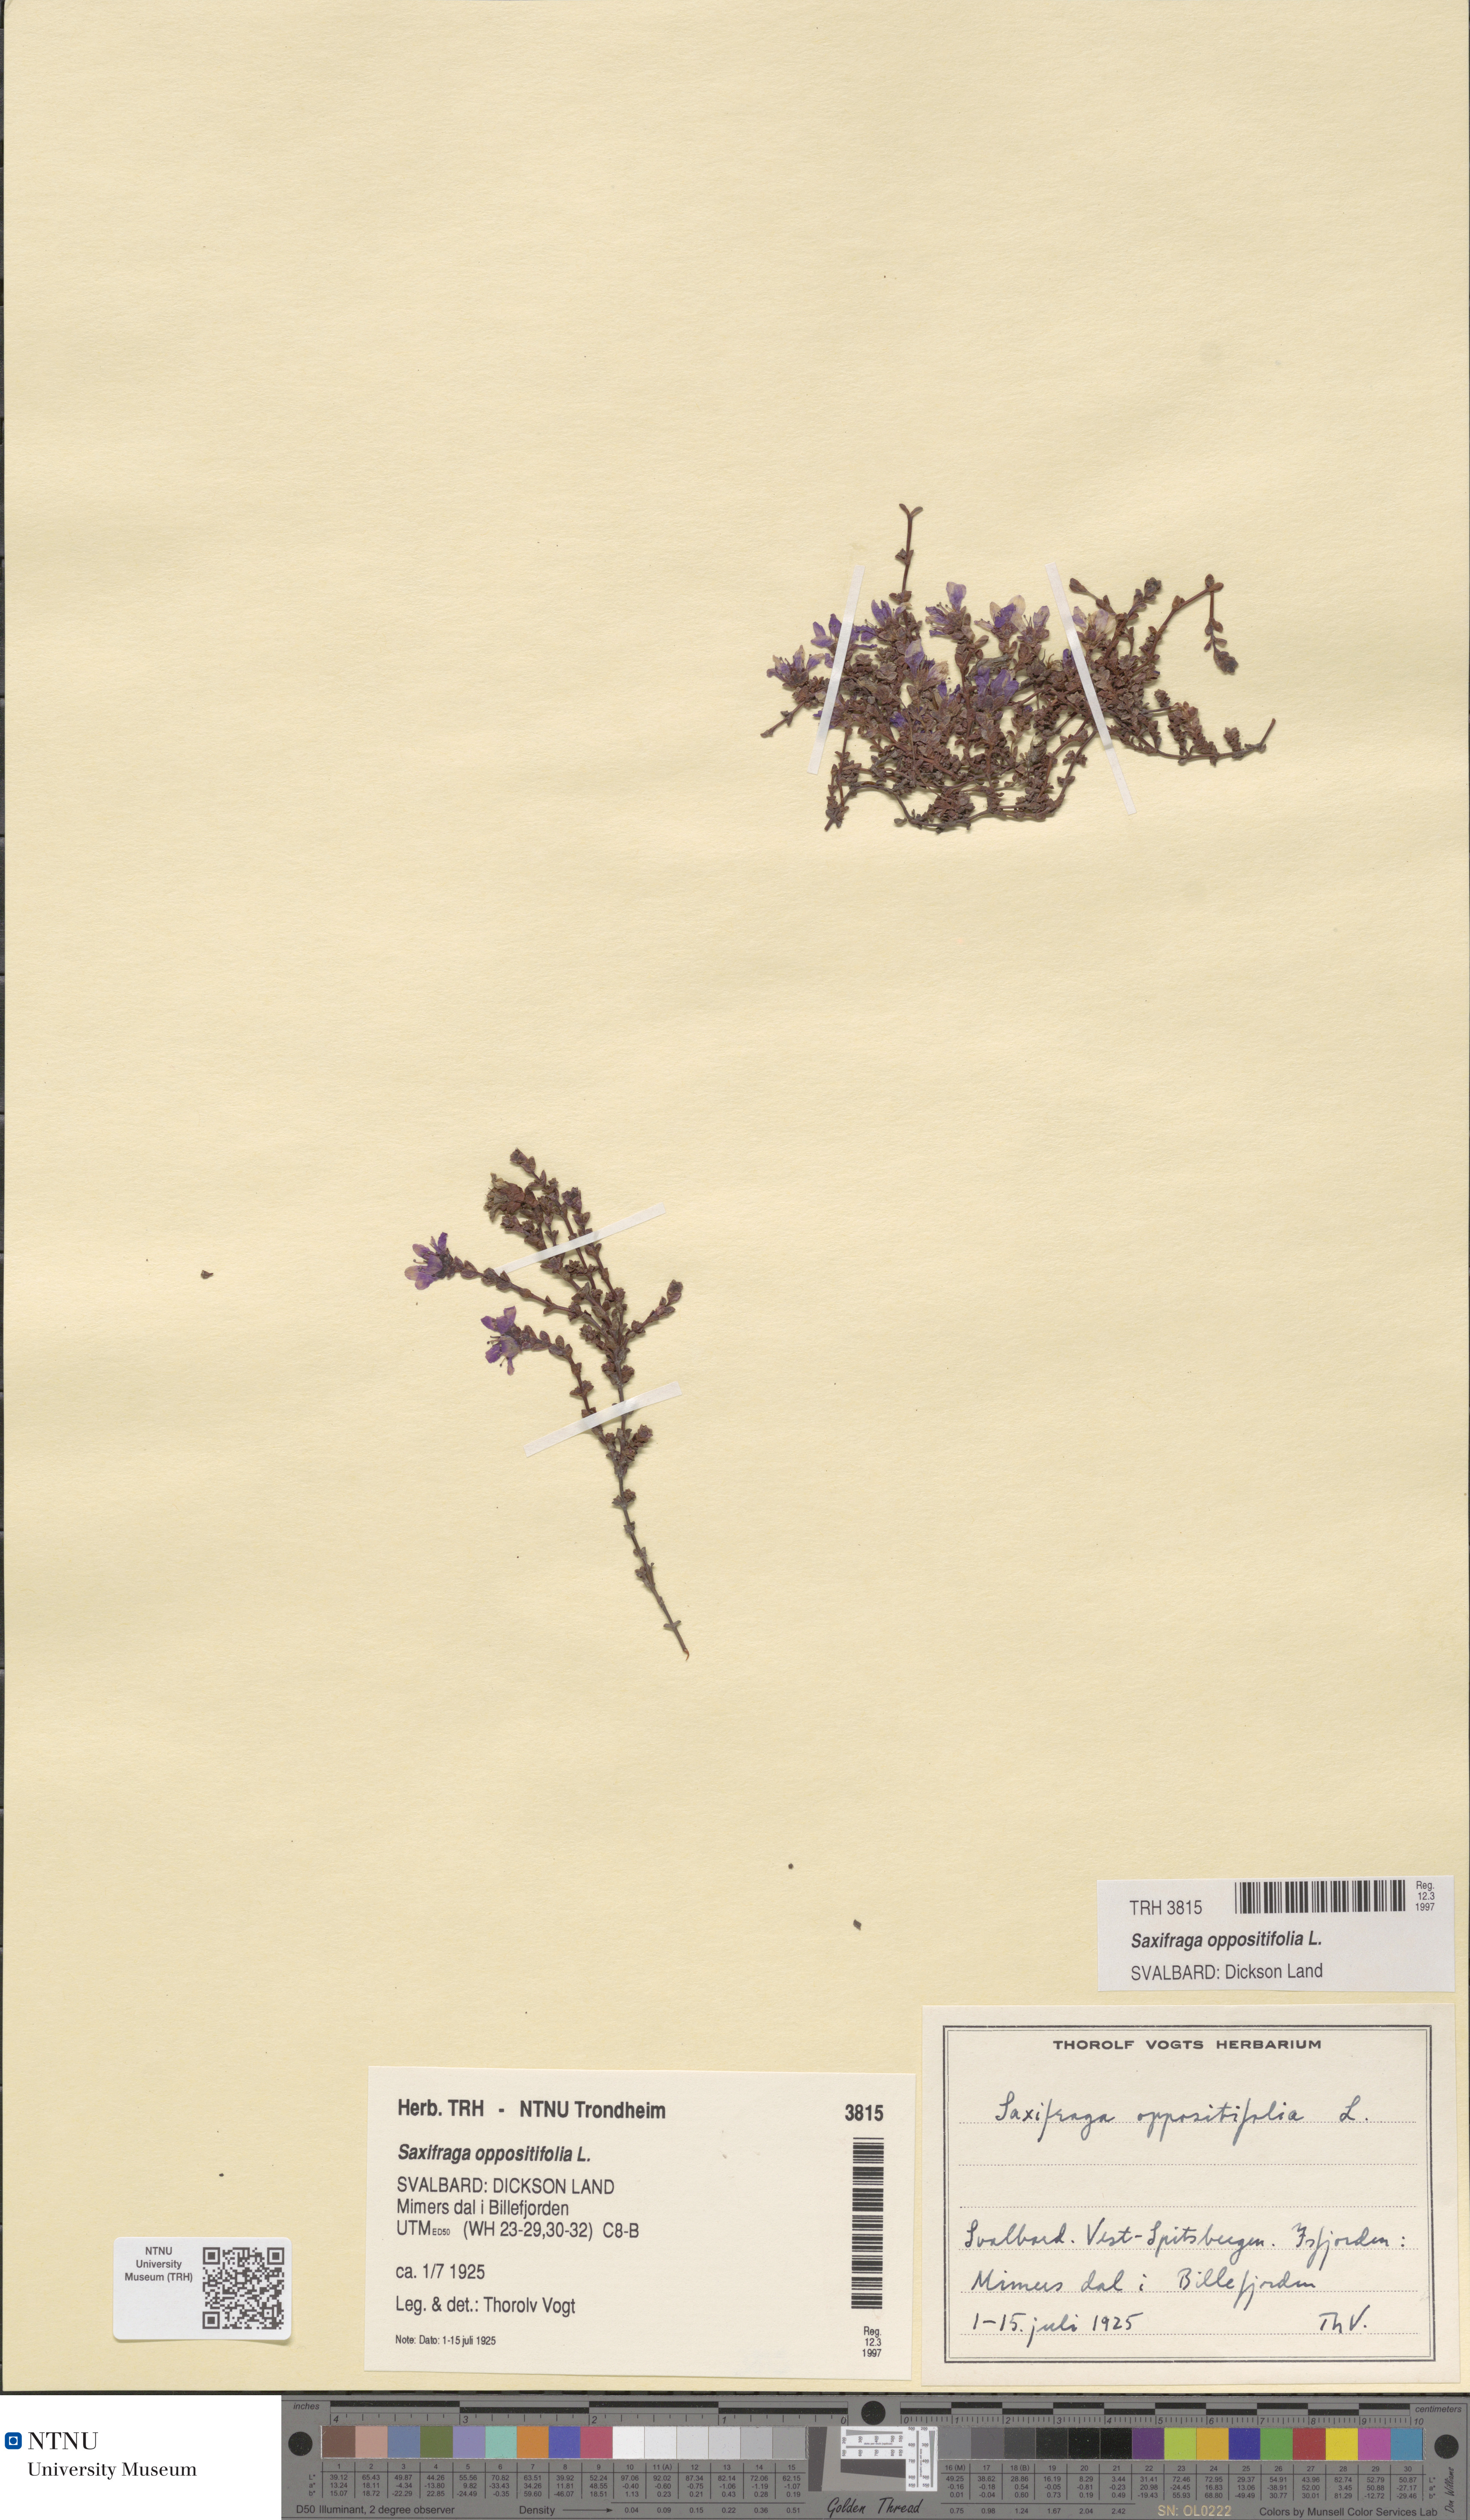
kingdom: Plantae
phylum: Tracheophyta
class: Magnoliopsida
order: Saxifragales
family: Saxifragaceae
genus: Saxifraga
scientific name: Saxifraga oppositifolia
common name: Purple saxifrage
